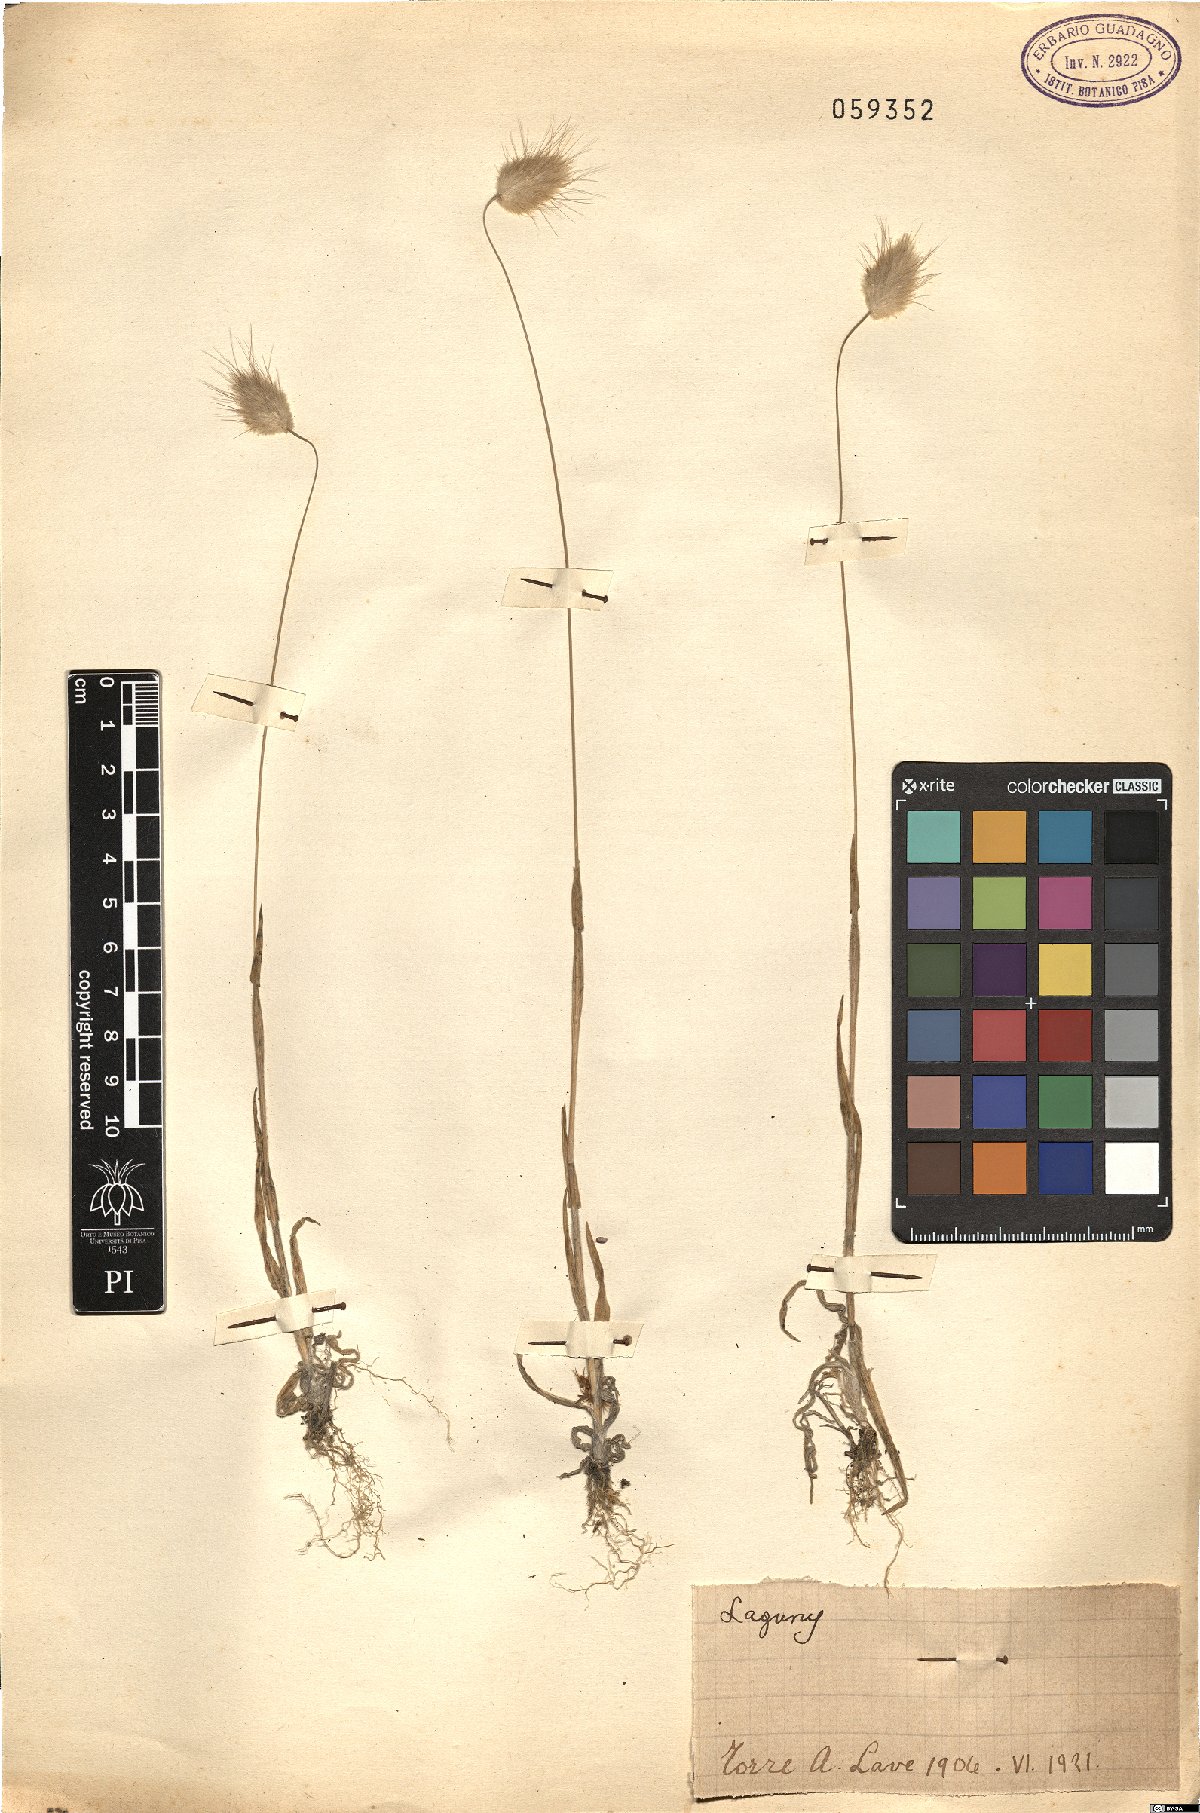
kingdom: Plantae
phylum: Tracheophyta
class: Liliopsida
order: Poales
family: Poaceae
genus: Lagurus
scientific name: Lagurus
